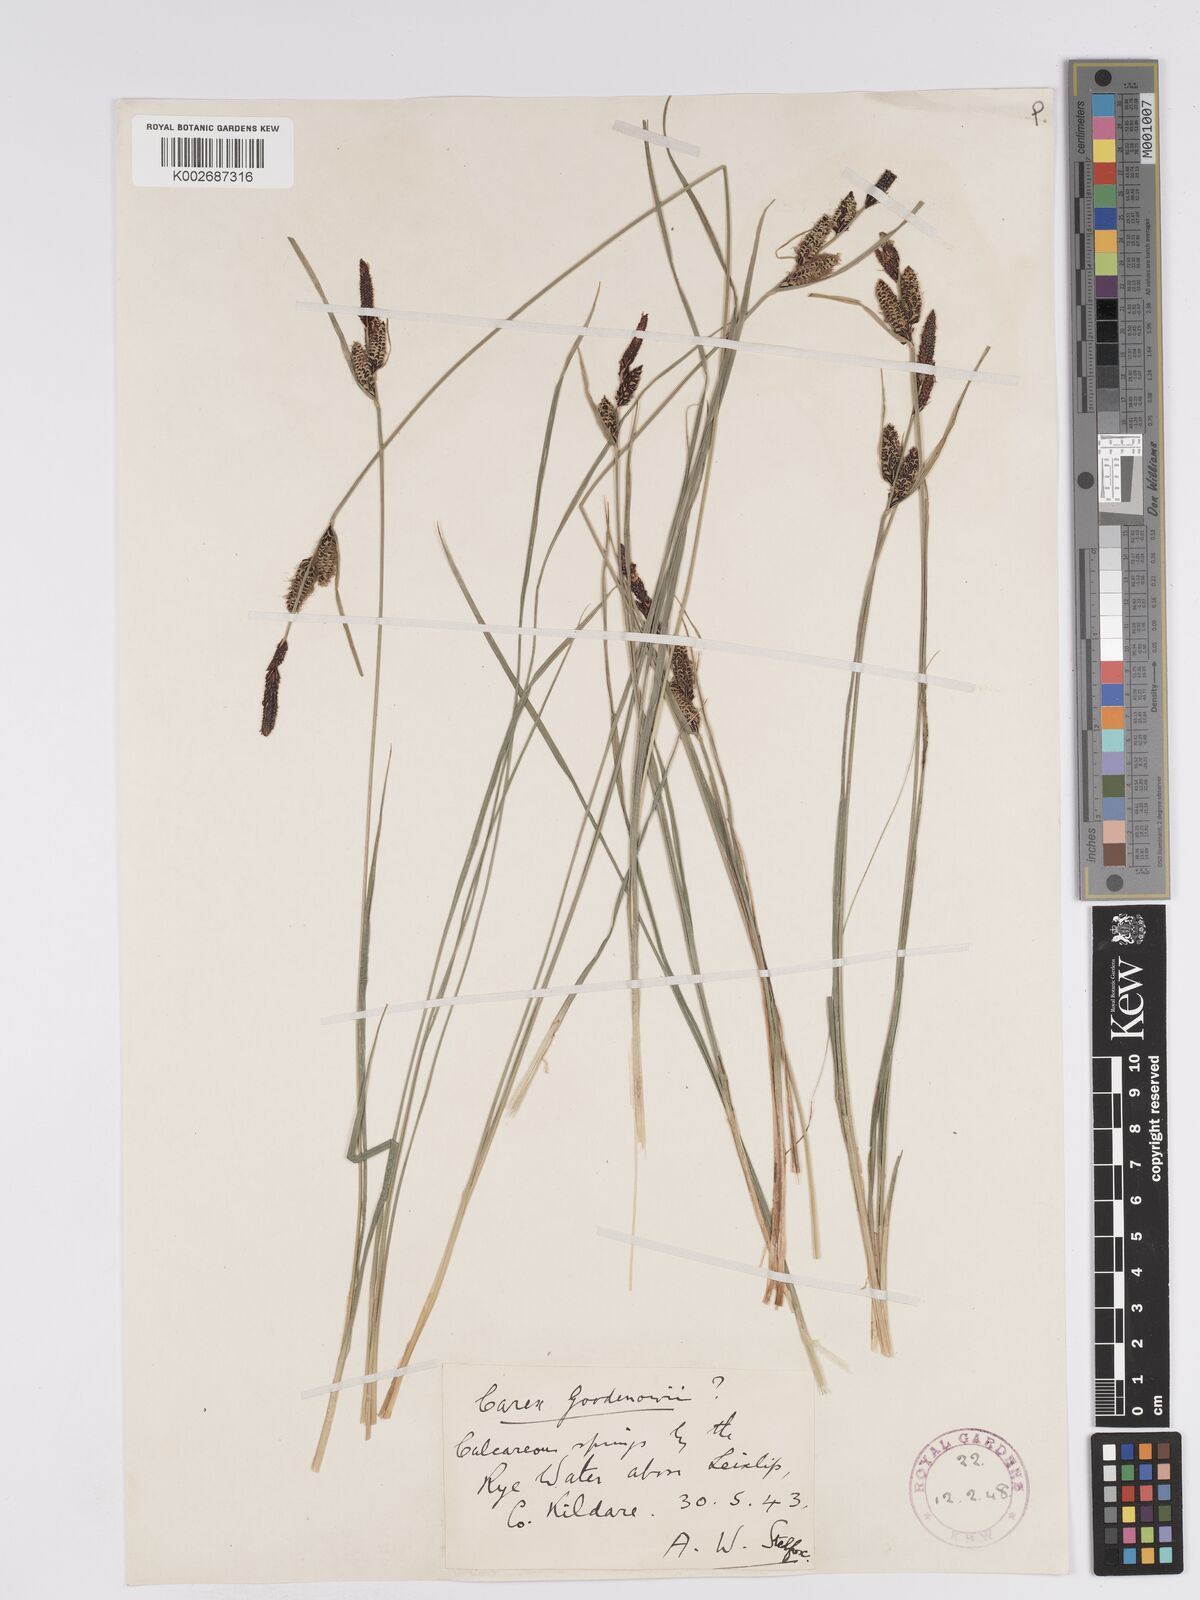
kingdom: Plantae
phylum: Tracheophyta
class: Liliopsida
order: Poales
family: Cyperaceae
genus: Carex
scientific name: Carex nigra
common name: Common sedge
